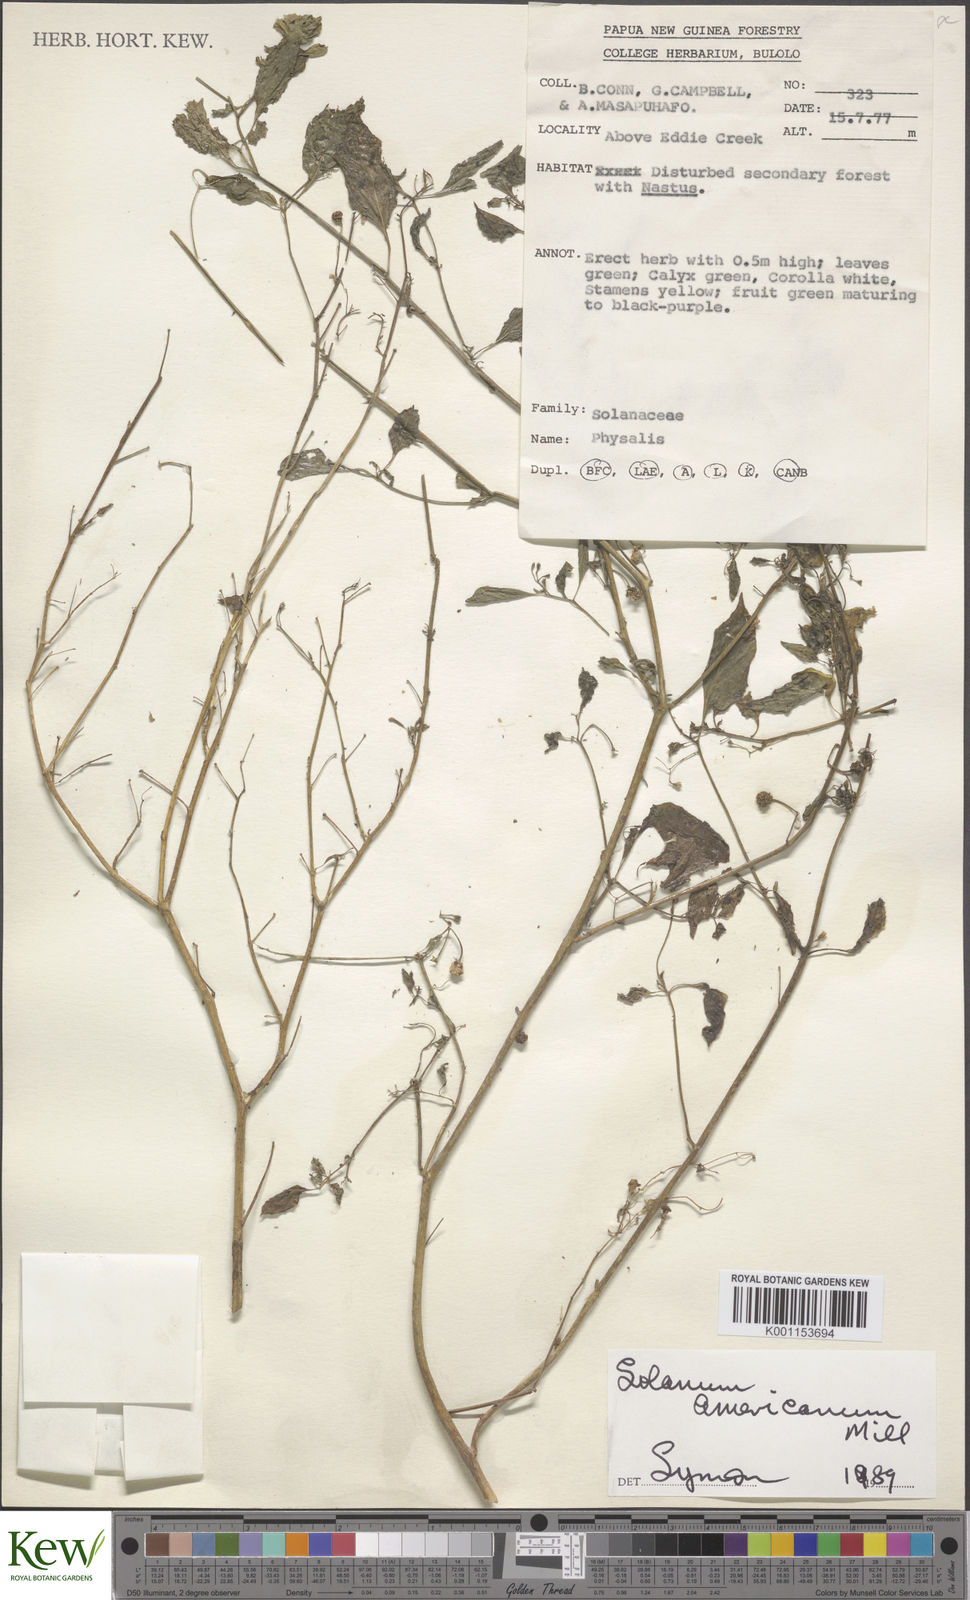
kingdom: Plantae
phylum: Tracheophyta
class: Magnoliopsida
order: Solanales
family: Solanaceae
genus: Solanum
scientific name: Solanum americanum
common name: American black nightshade
